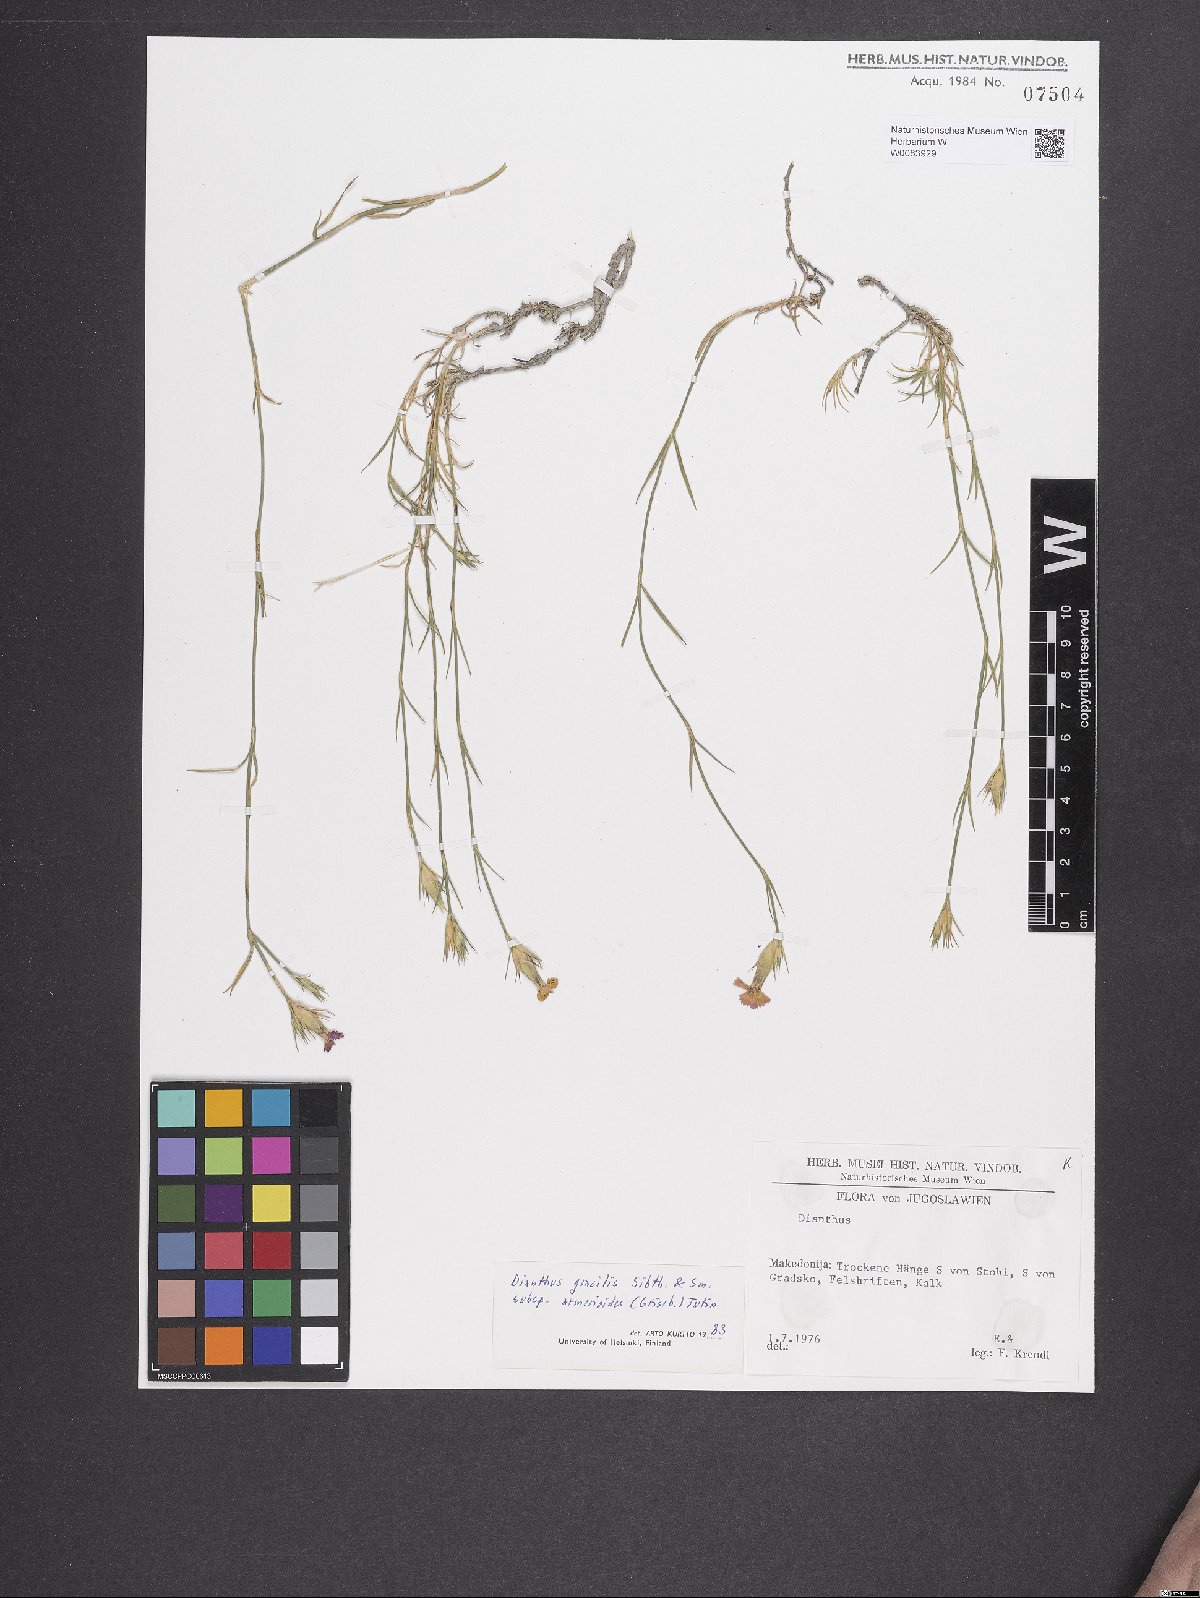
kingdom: Plantae
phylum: Tracheophyta
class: Magnoliopsida
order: Caryophyllales
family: Caryophyllaceae
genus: Dianthus
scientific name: Dianthus gracilis
